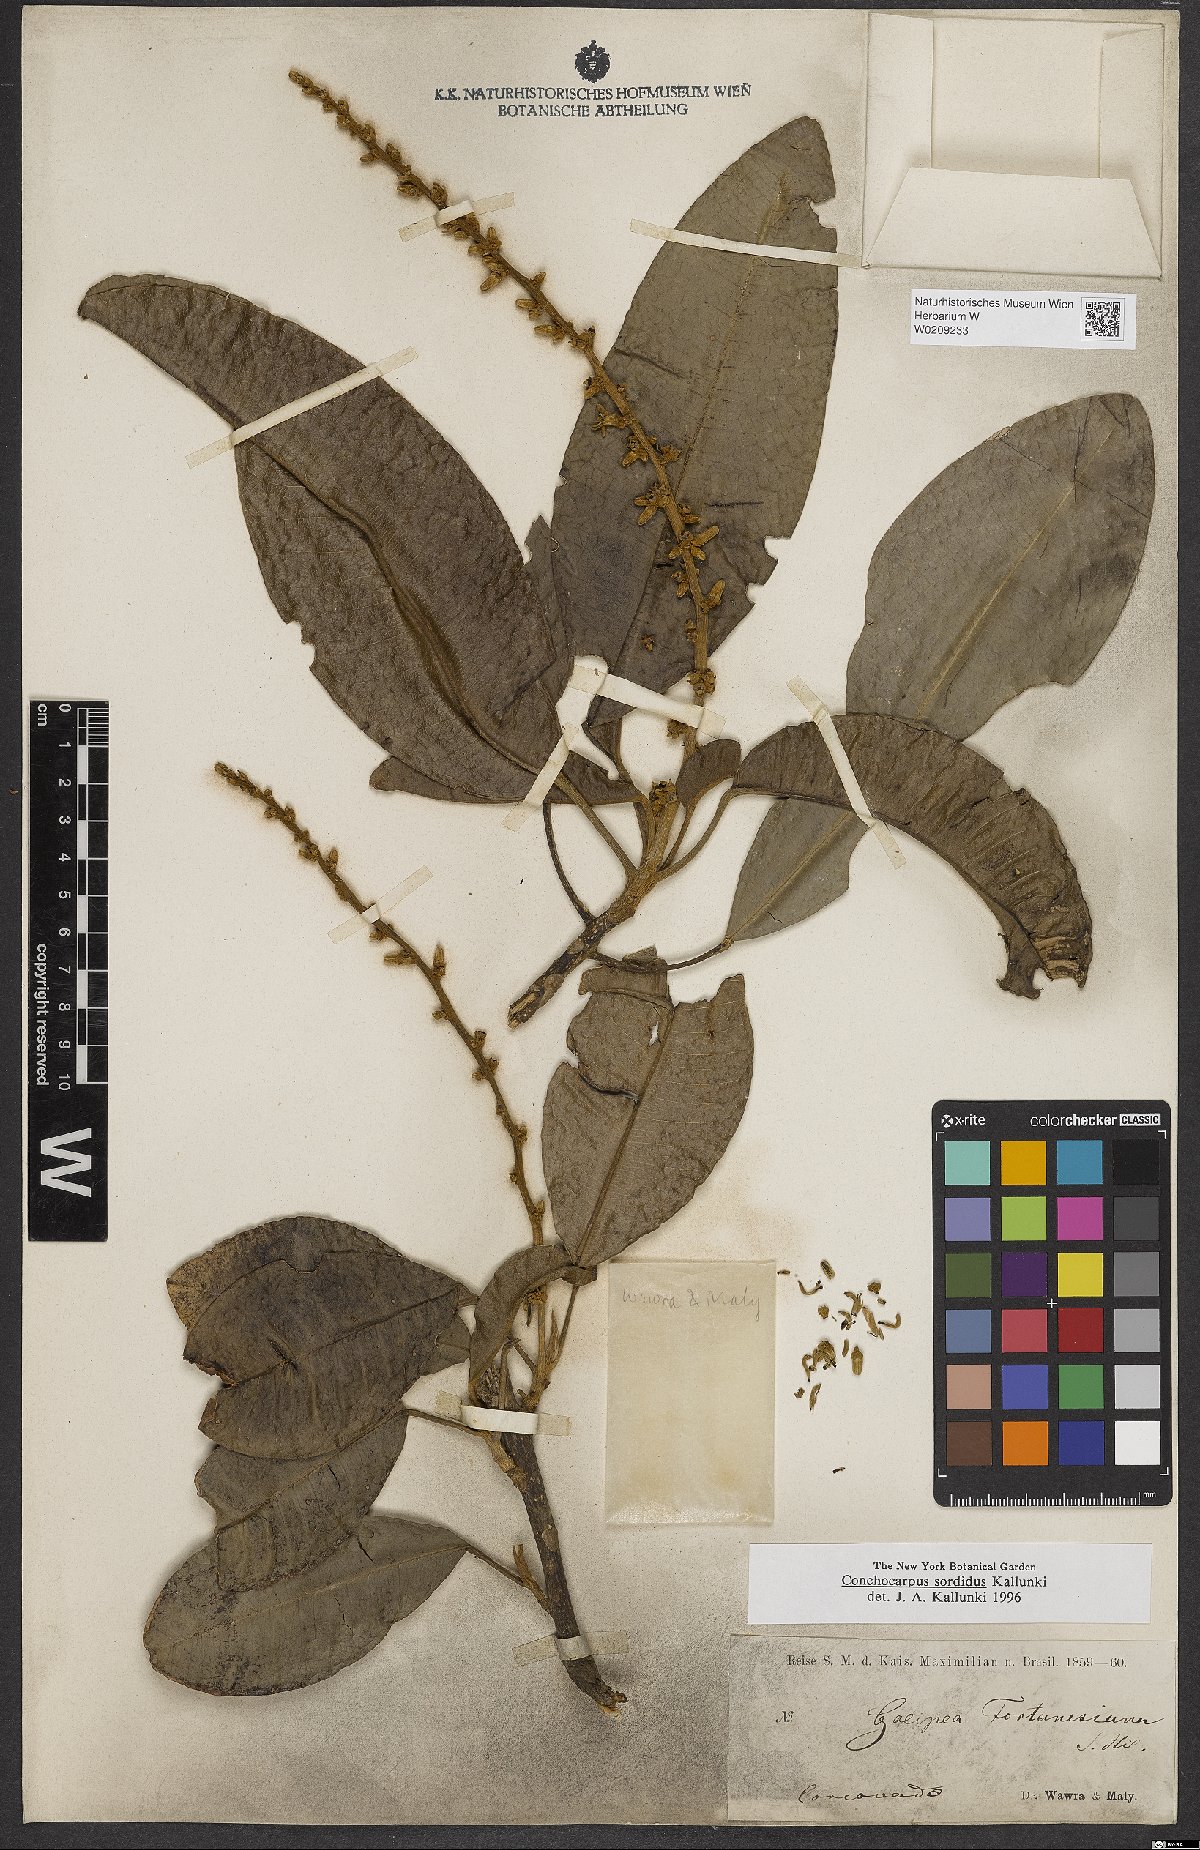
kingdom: Plantae
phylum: Tracheophyta
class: Magnoliopsida
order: Sapindales
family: Rutaceae
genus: Conchocarpus
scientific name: Conchocarpus sordidus
